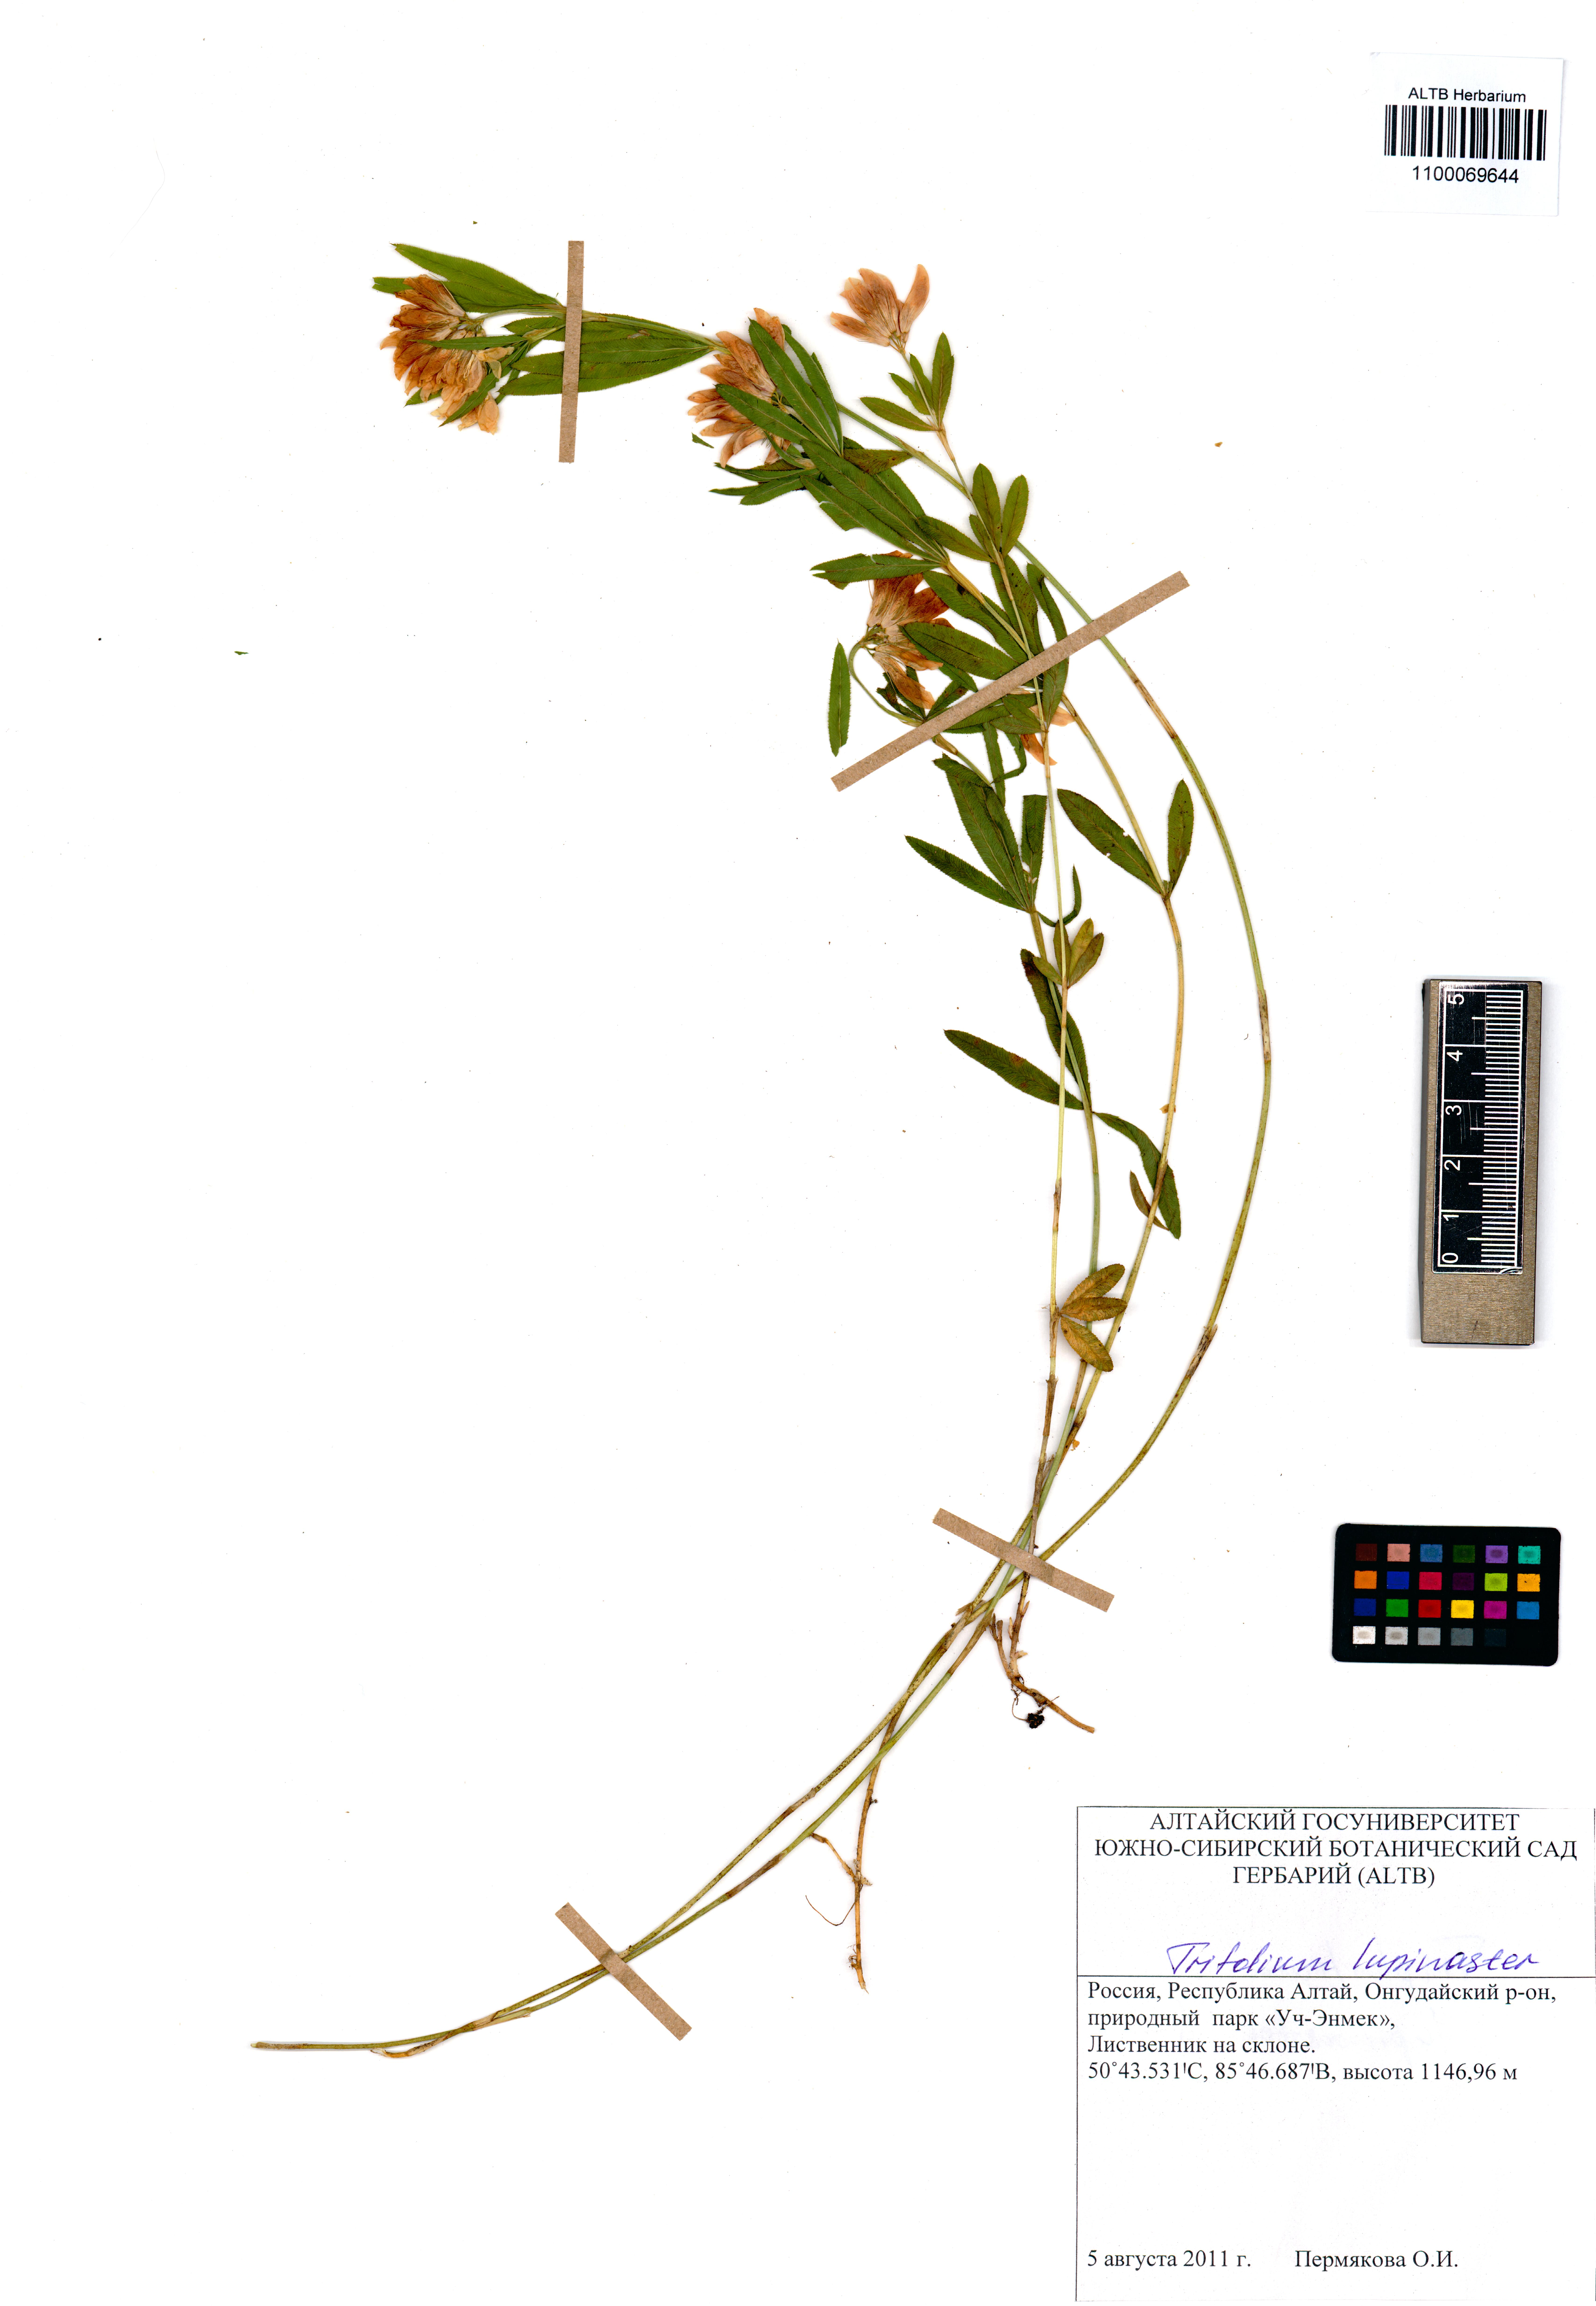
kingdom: Plantae
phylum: Tracheophyta
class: Magnoliopsida
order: Fabales
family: Fabaceae
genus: Trifolium
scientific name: Trifolium lupinaster
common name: Lupine clover
